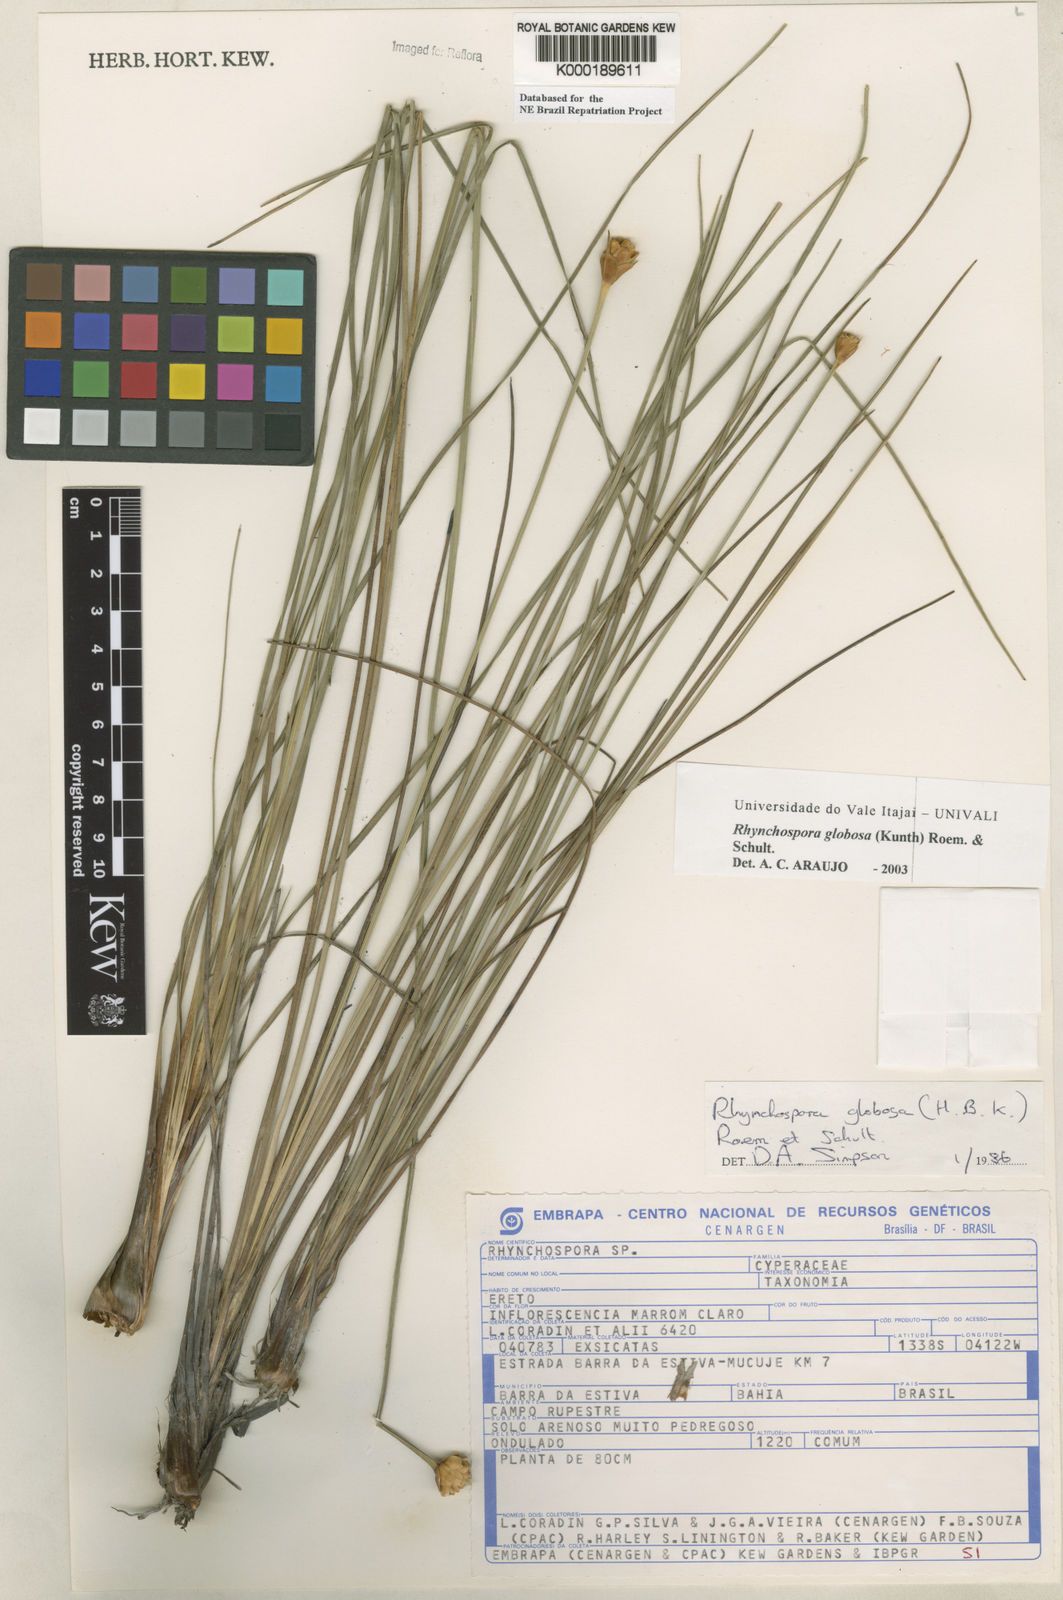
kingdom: Plantae
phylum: Tracheophyta
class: Liliopsida
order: Poales
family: Cyperaceae
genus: Rhynchospora
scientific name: Rhynchospora globosa
